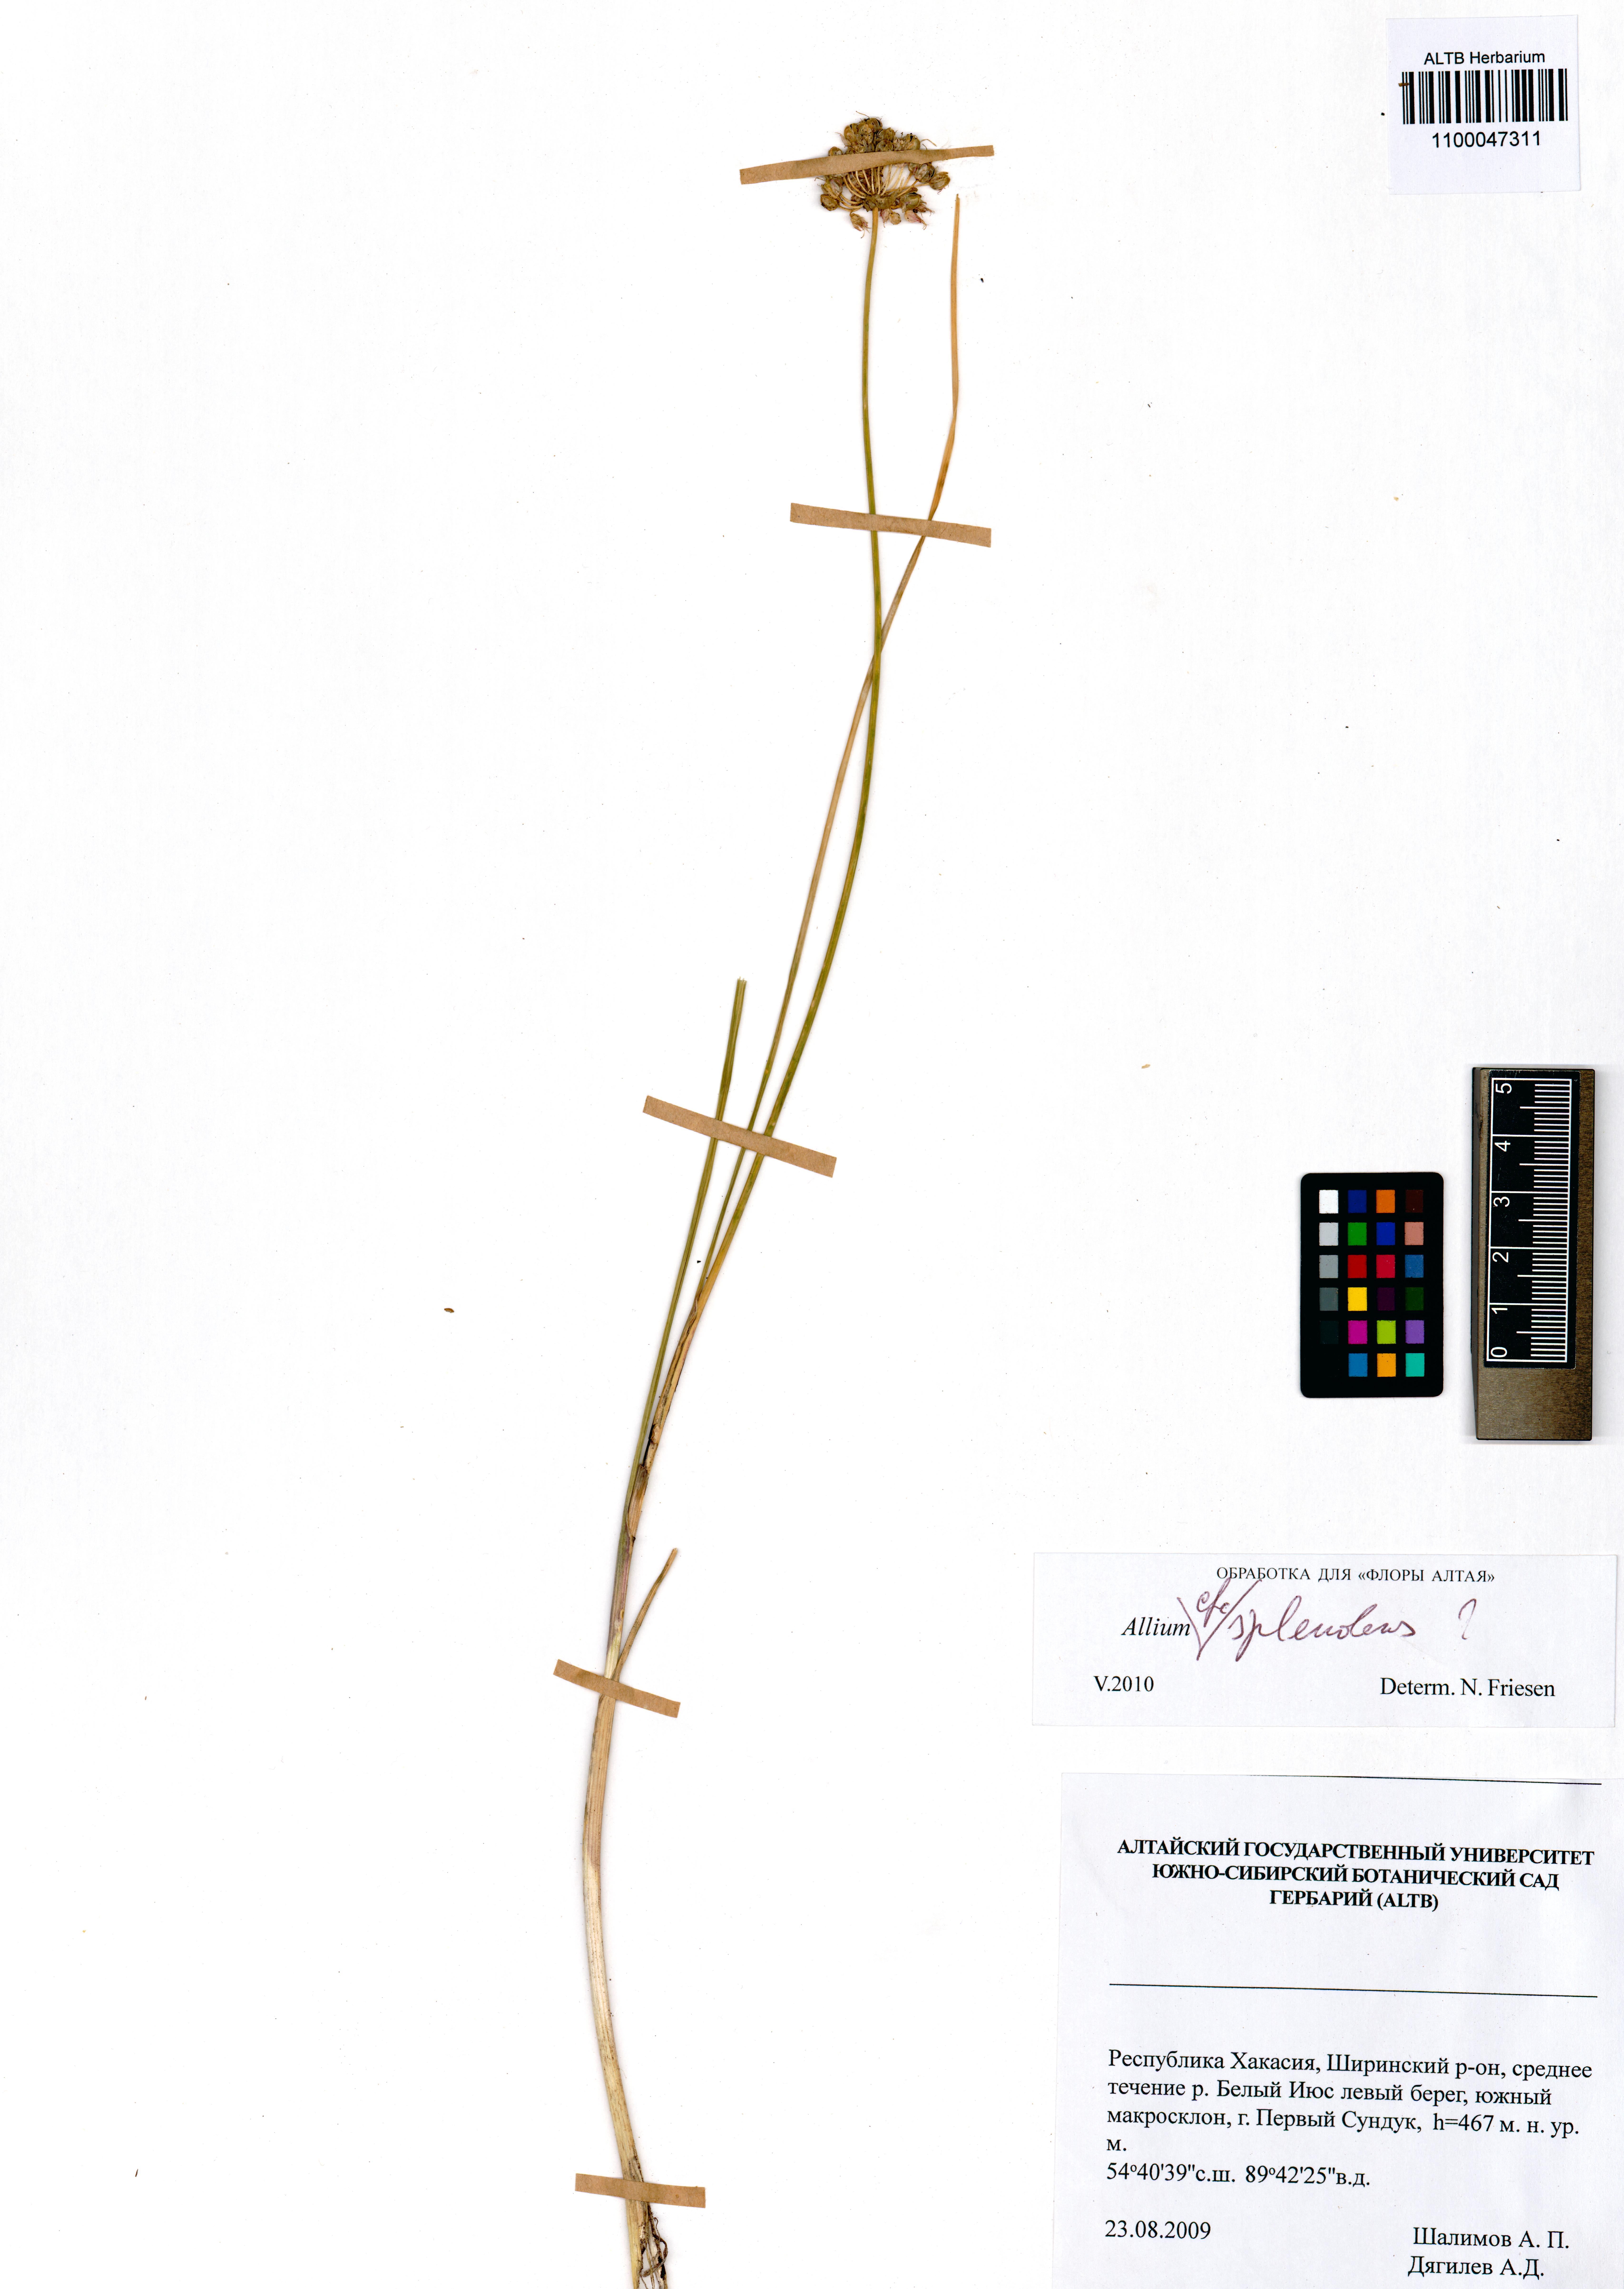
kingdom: Plantae
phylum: Tracheophyta
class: Liliopsida
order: Asparagales
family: Amaryllidaceae
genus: Allium
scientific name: Allium splendens
